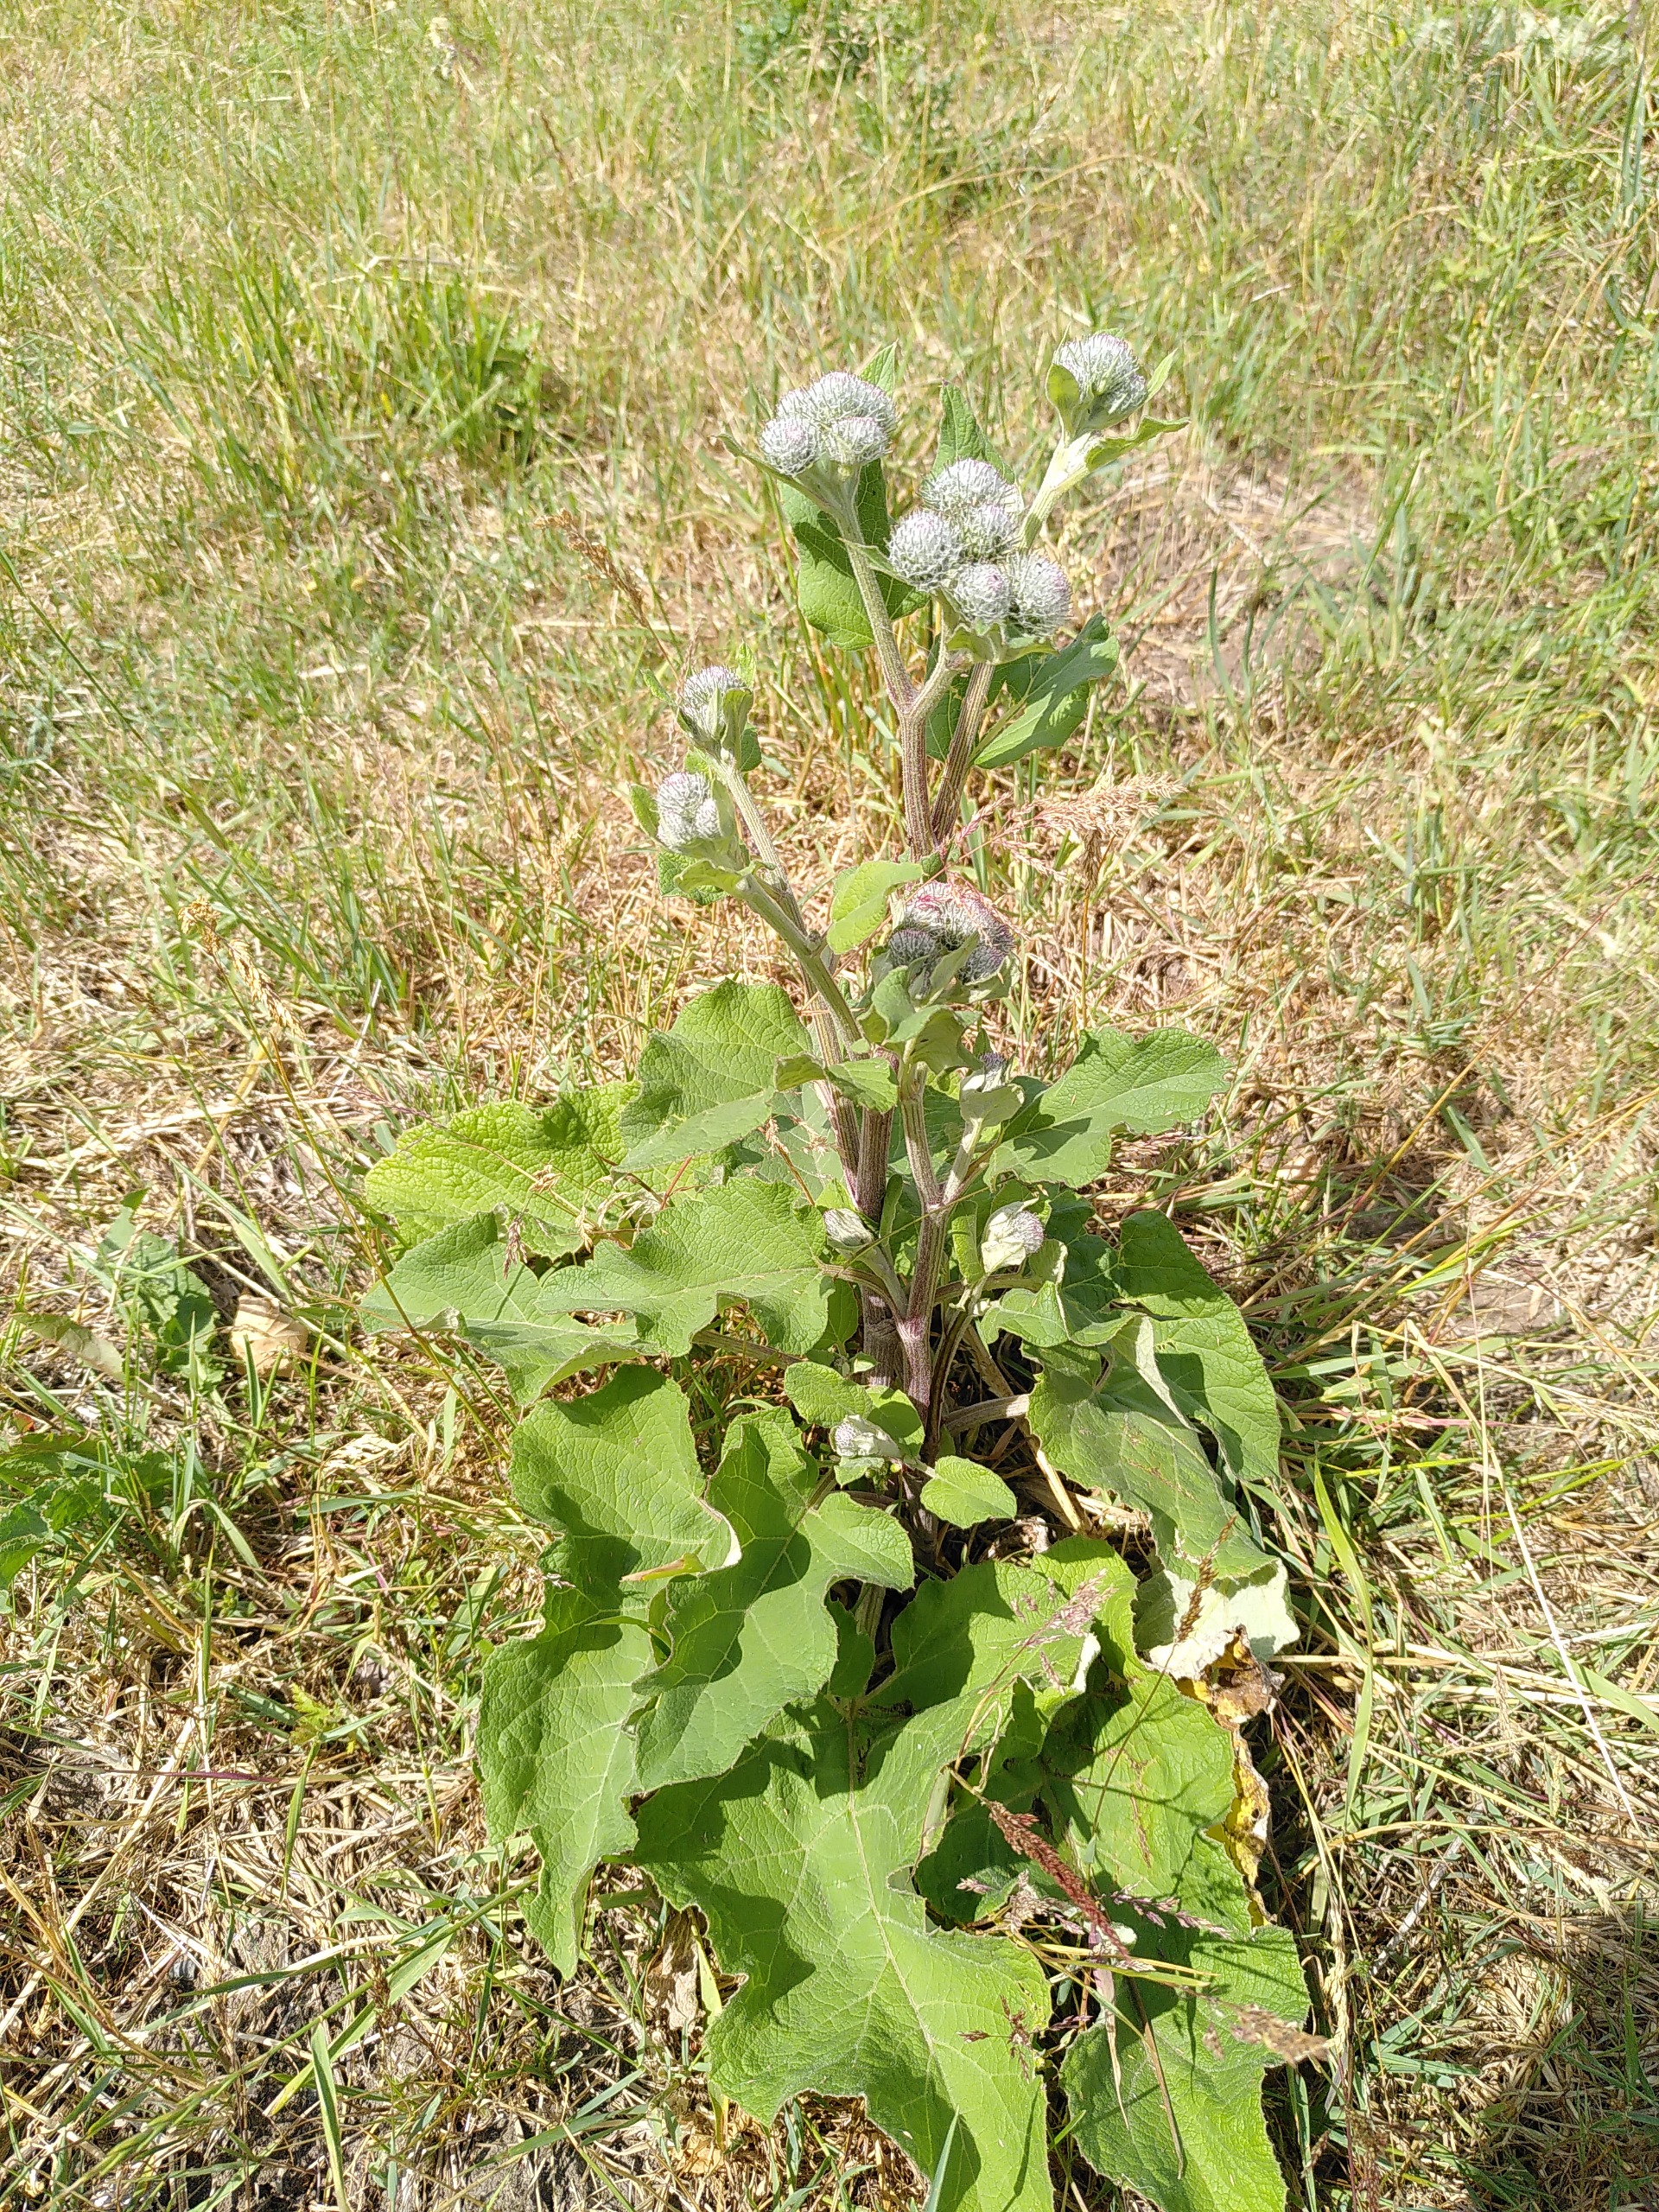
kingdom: Plantae
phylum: Tracheophyta
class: Magnoliopsida
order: Asterales
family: Asteraceae
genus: Arctium
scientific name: Arctium tomentosum
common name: Filtet burre
